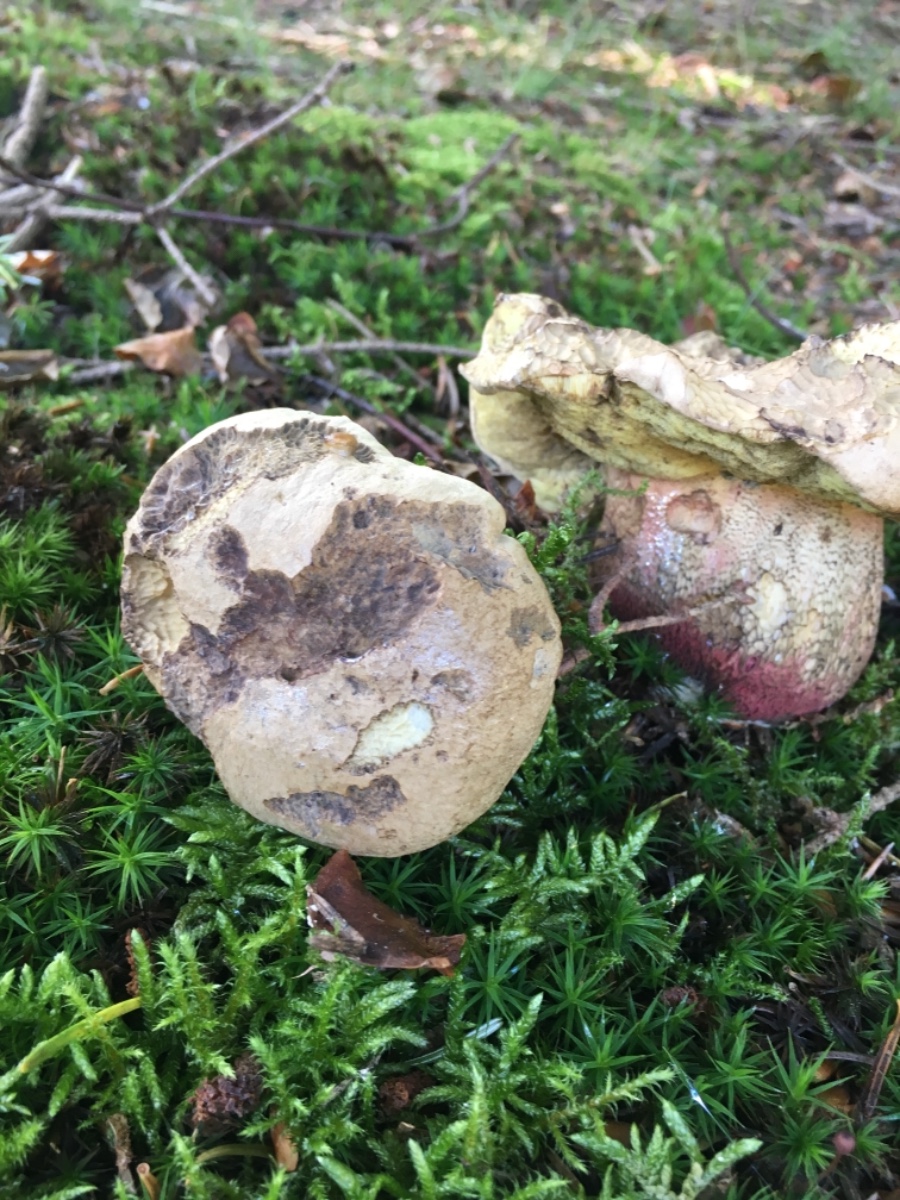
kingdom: Fungi
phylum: Basidiomycota
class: Agaricomycetes
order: Boletales
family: Boletaceae
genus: Caloboletus
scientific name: Caloboletus calopus
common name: skønfodet rørhat
